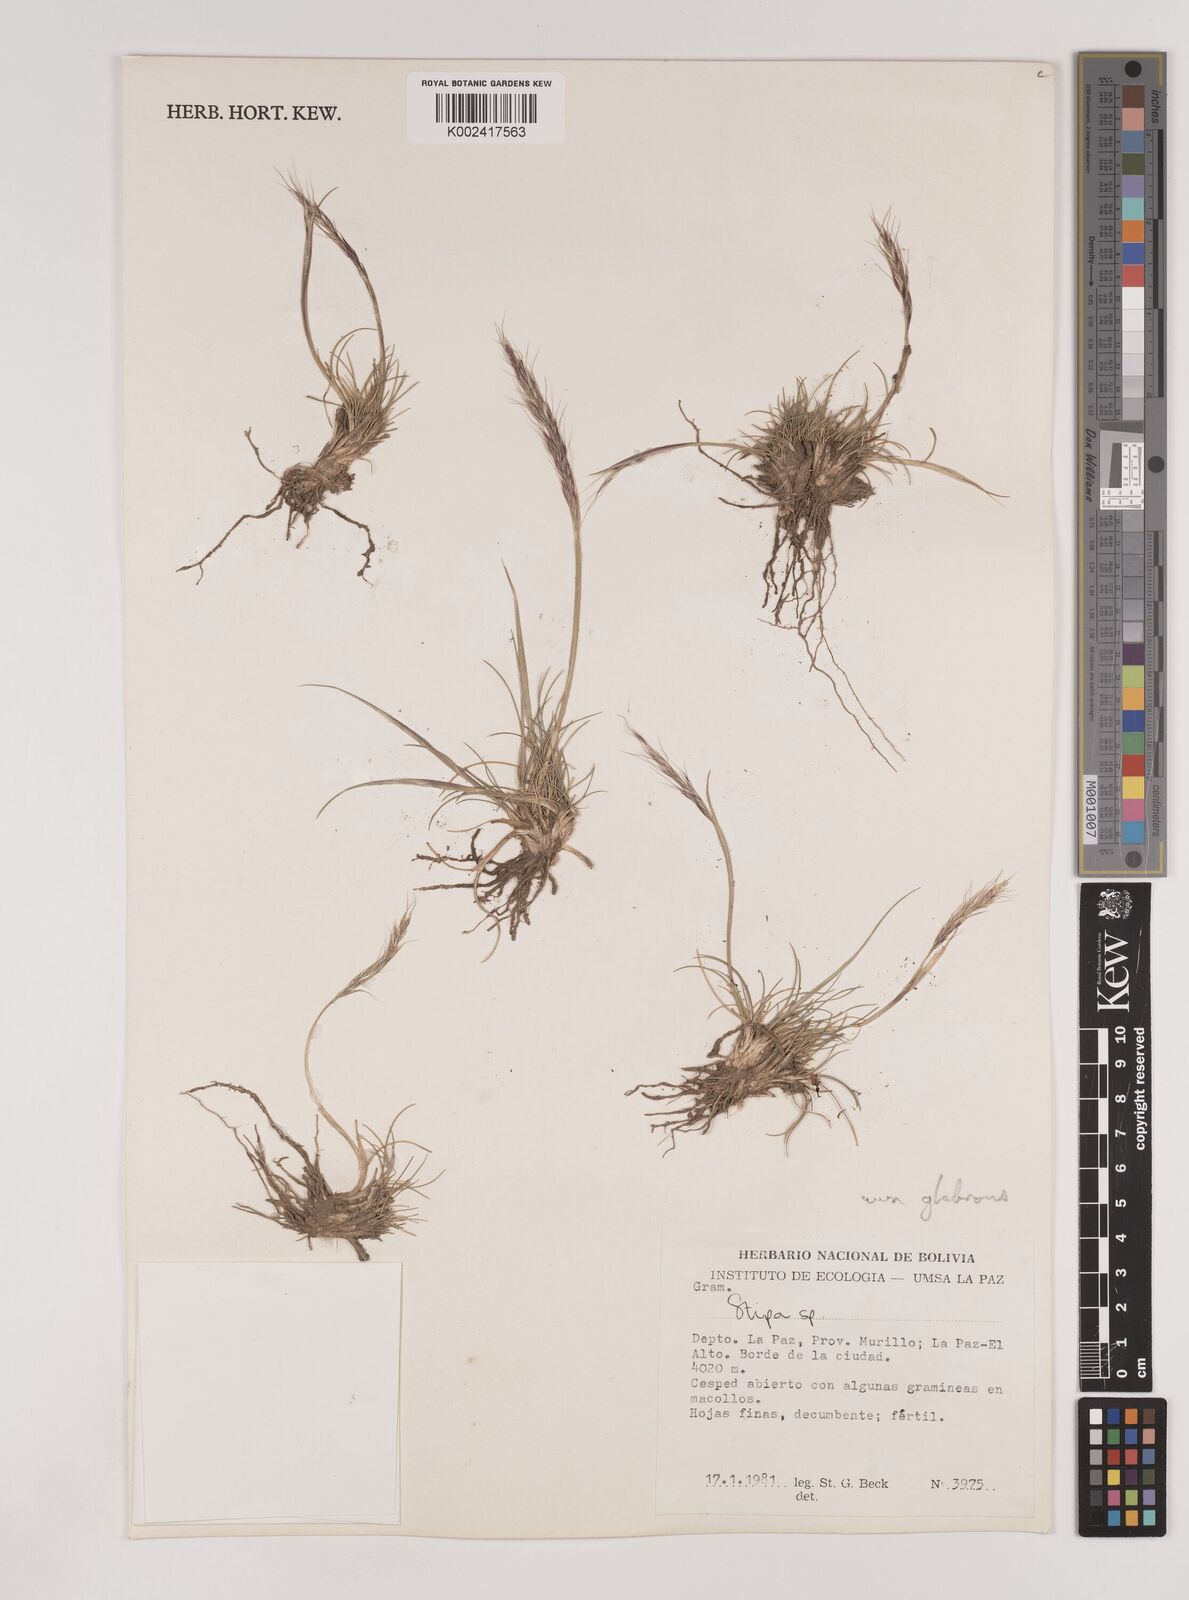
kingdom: Plantae
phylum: Tracheophyta
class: Liliopsida
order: Poales
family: Poaceae
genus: Nassella
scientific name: Nassella rupestris
